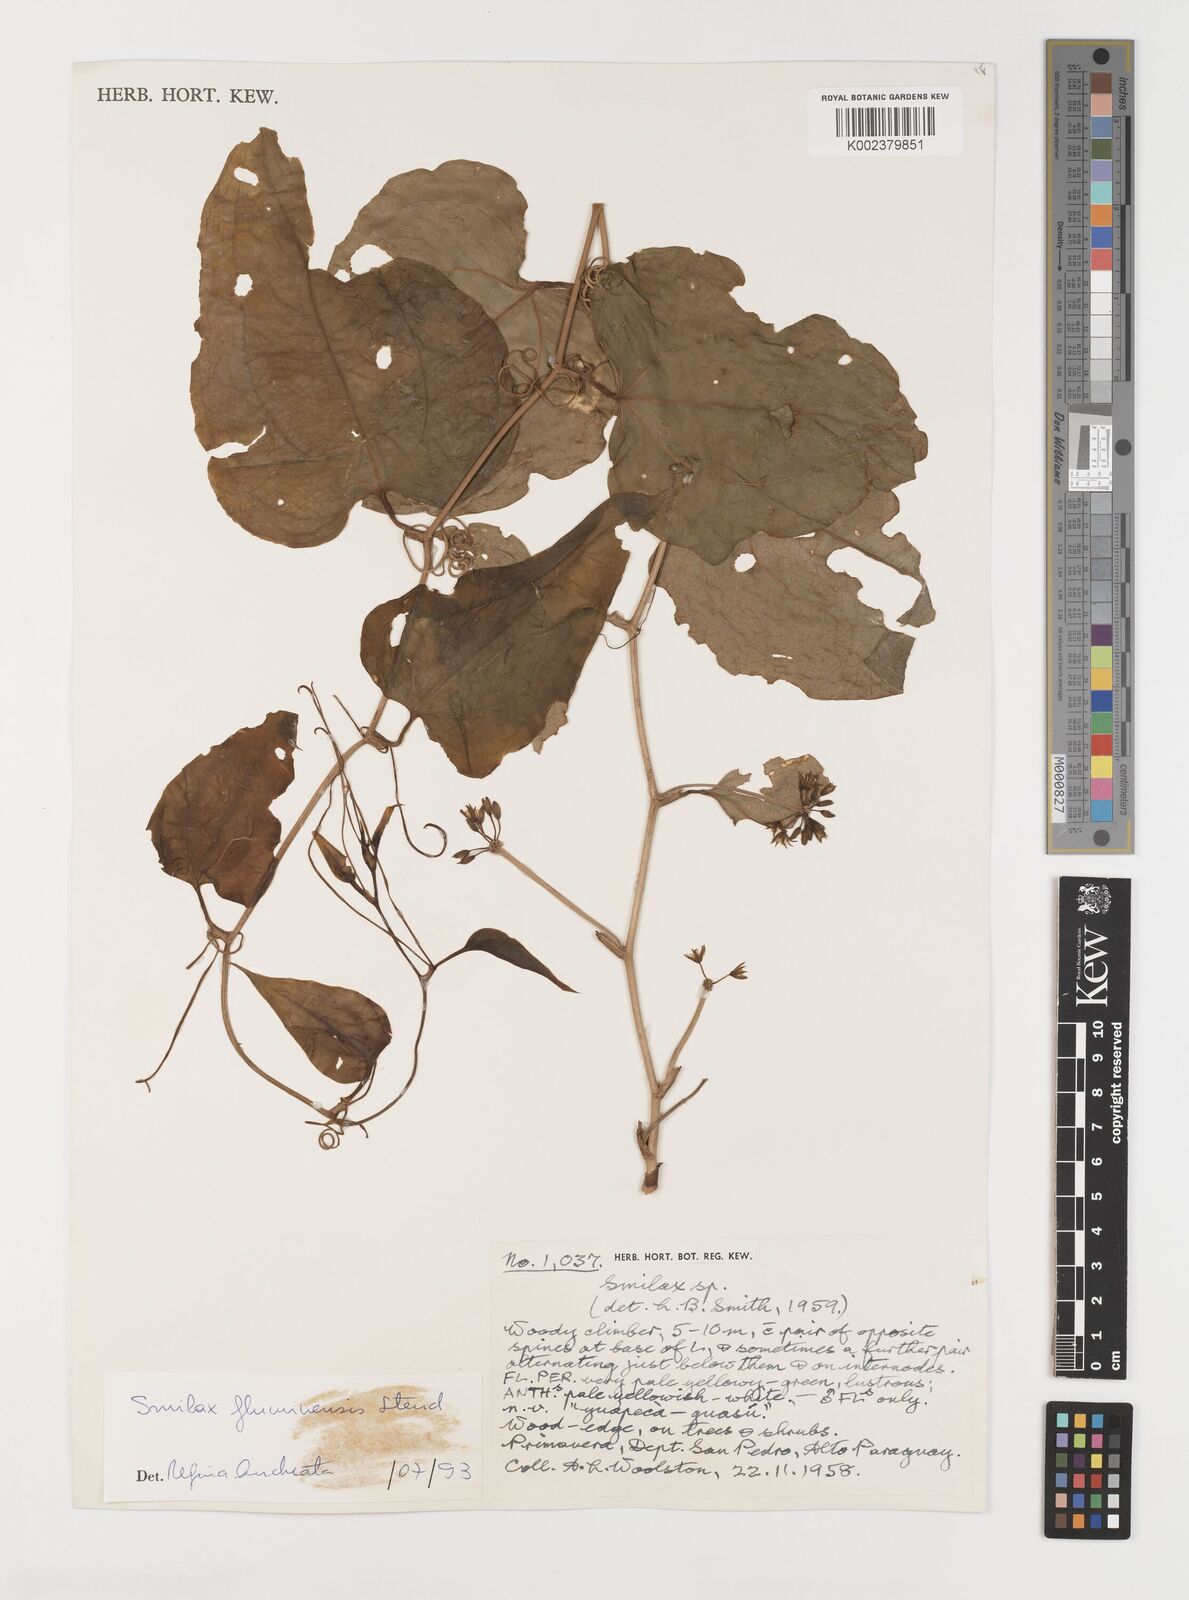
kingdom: Plantae
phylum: Tracheophyta
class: Liliopsida
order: Liliales
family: Smilacaceae
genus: Smilax
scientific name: Smilax fluminensis
